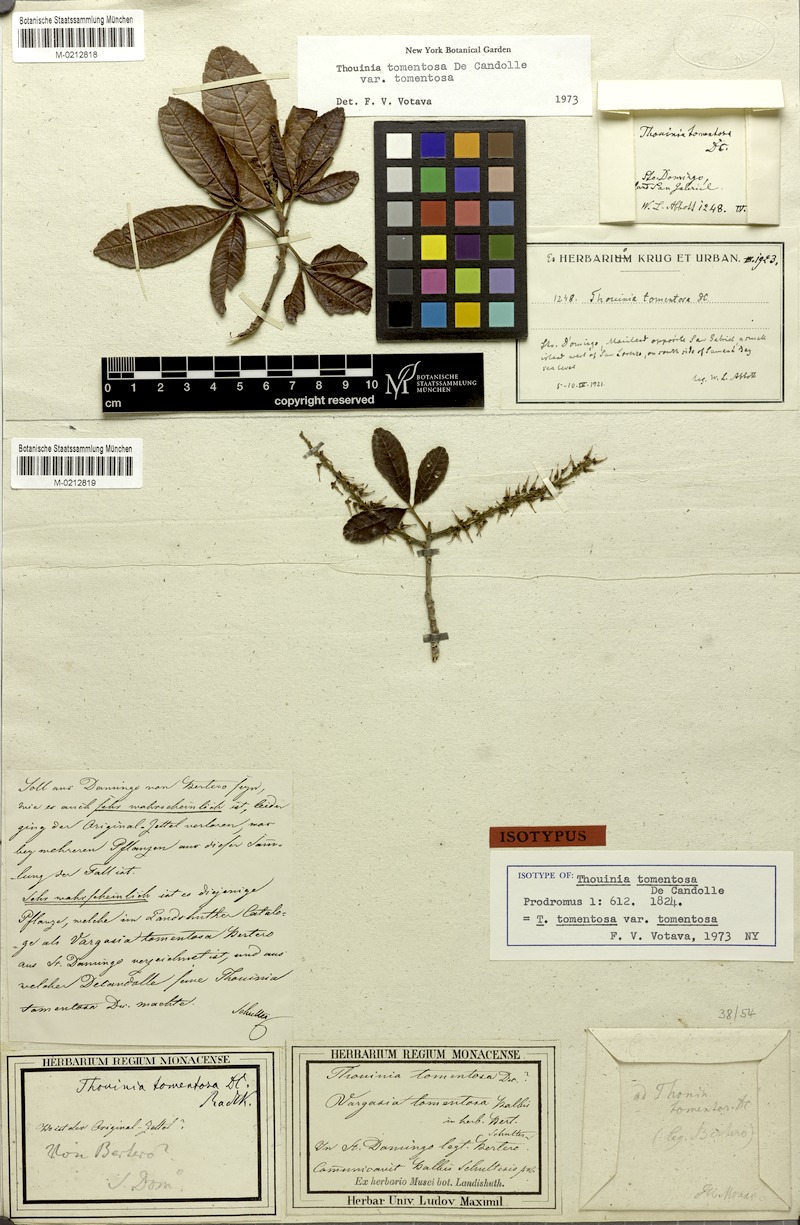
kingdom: Plantae
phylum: Tracheophyta
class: Magnoliopsida
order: Sapindales
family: Sapindaceae
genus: Thouinia
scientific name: Thouinia tomentosa
